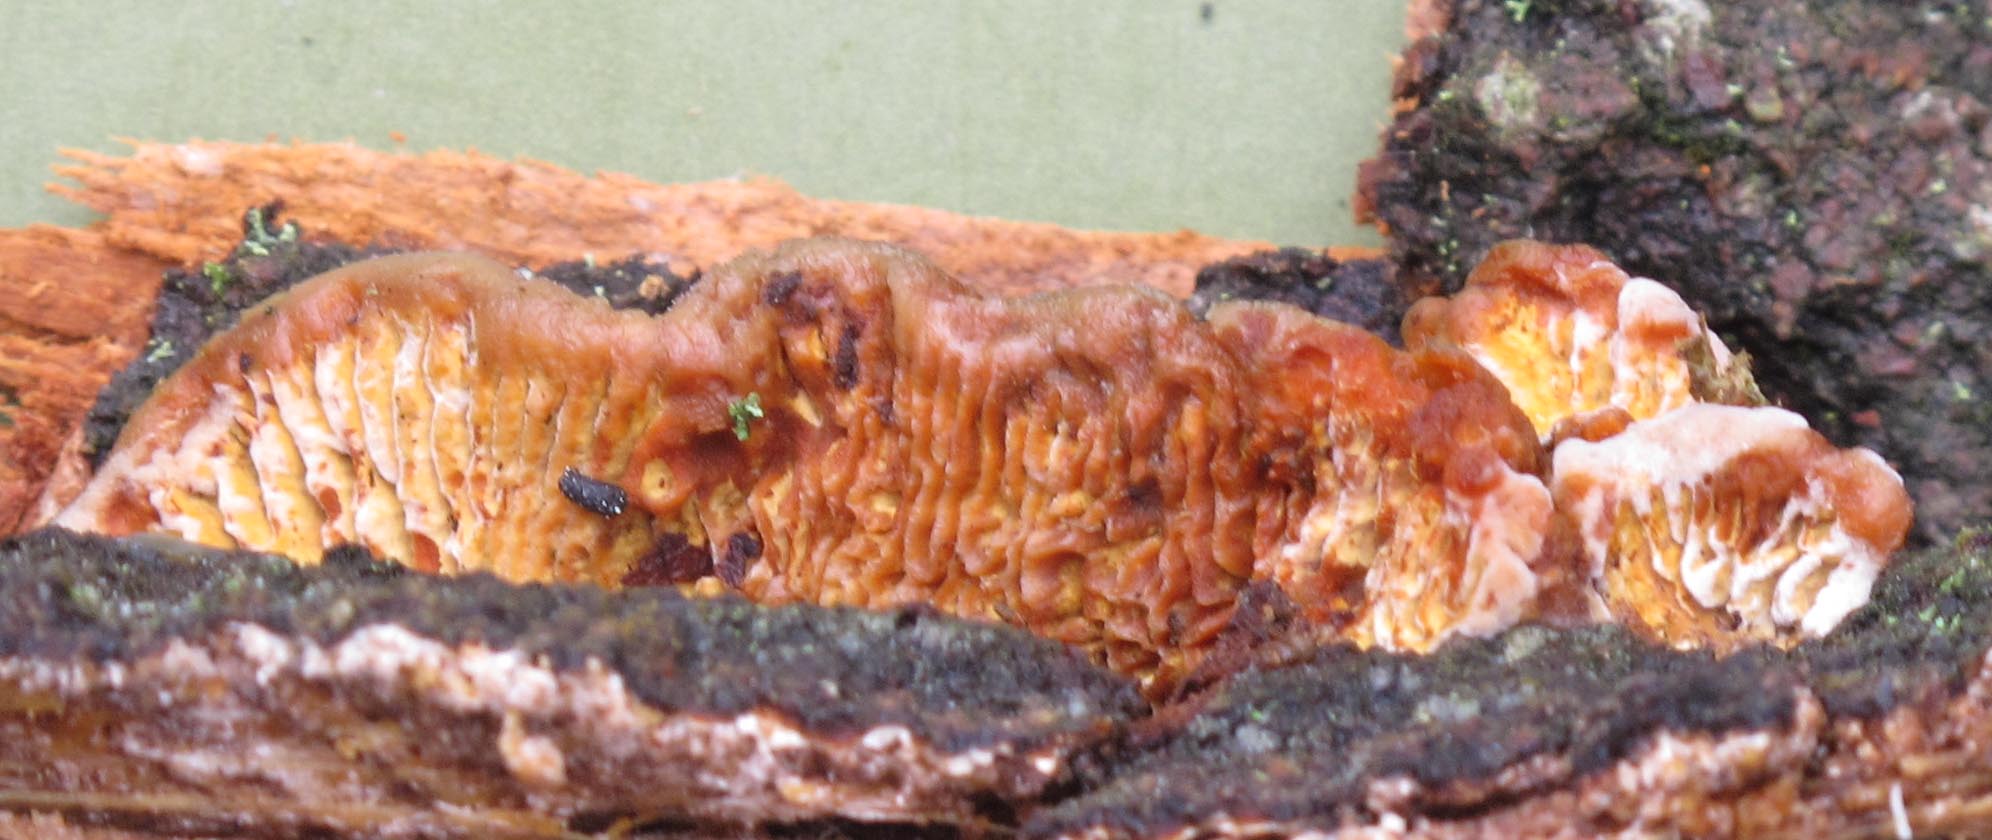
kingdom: Fungi
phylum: Basidiomycota
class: Agaricomycetes
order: Gloeophyllales
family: Gloeophyllaceae
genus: Gloeophyllum
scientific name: Gloeophyllum abietinum
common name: gran-korkhat
